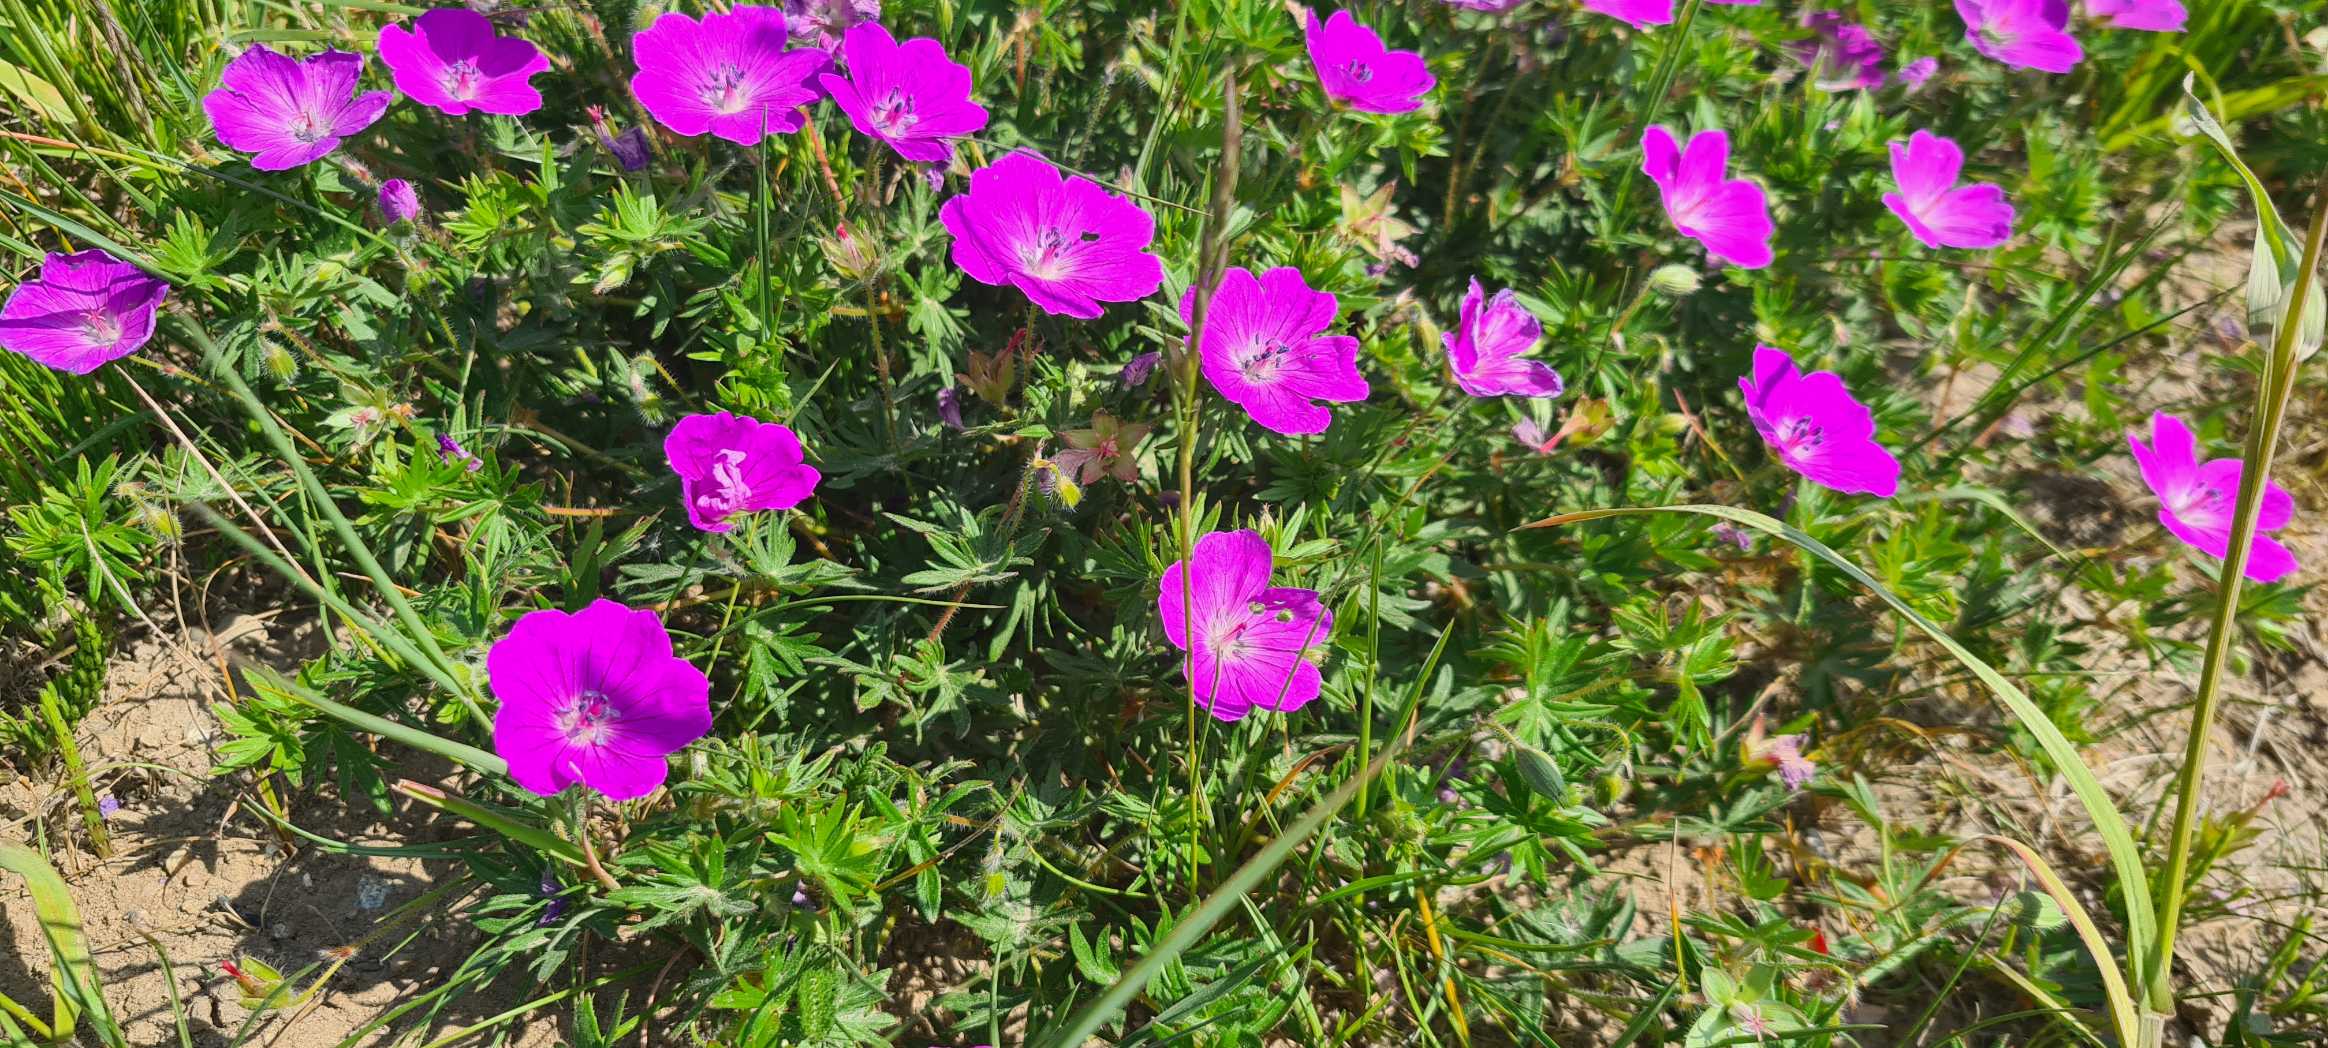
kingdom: Plantae
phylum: Tracheophyta
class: Magnoliopsida
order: Geraniales
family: Geraniaceae
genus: Geranium
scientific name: Geranium sanguineum
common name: Blodrød storkenæb
